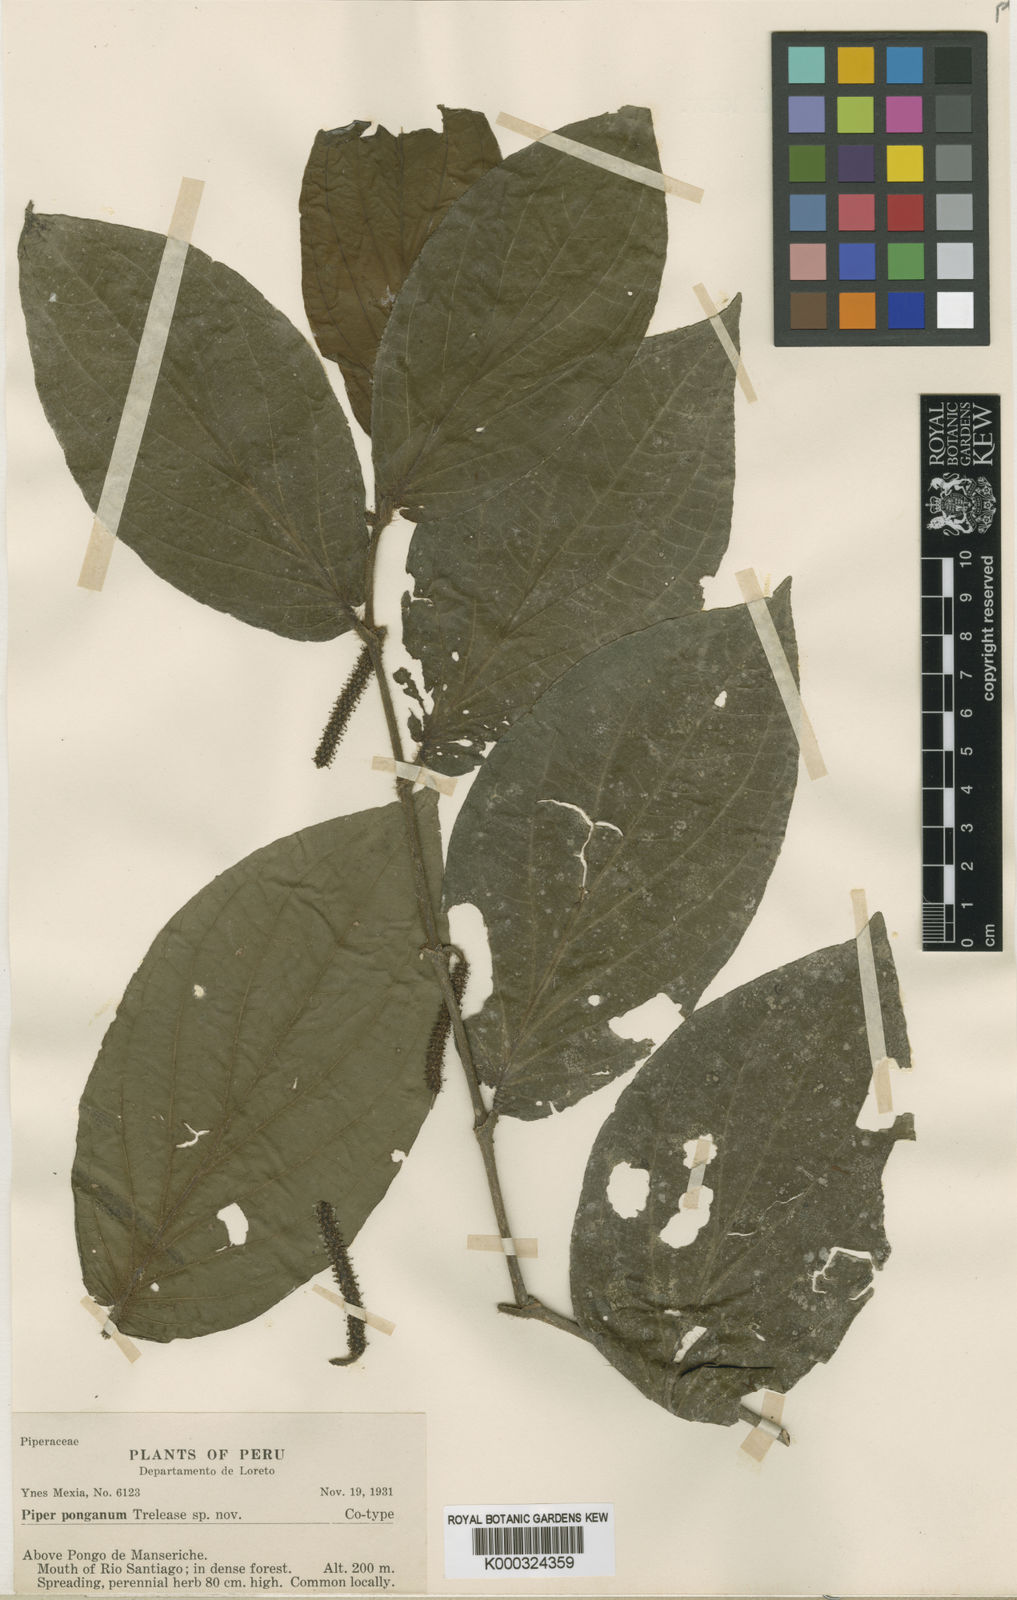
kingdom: Plantae
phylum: Tracheophyta
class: Magnoliopsida
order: Piperales
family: Piperaceae
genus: Piper
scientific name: Piper ponganum
